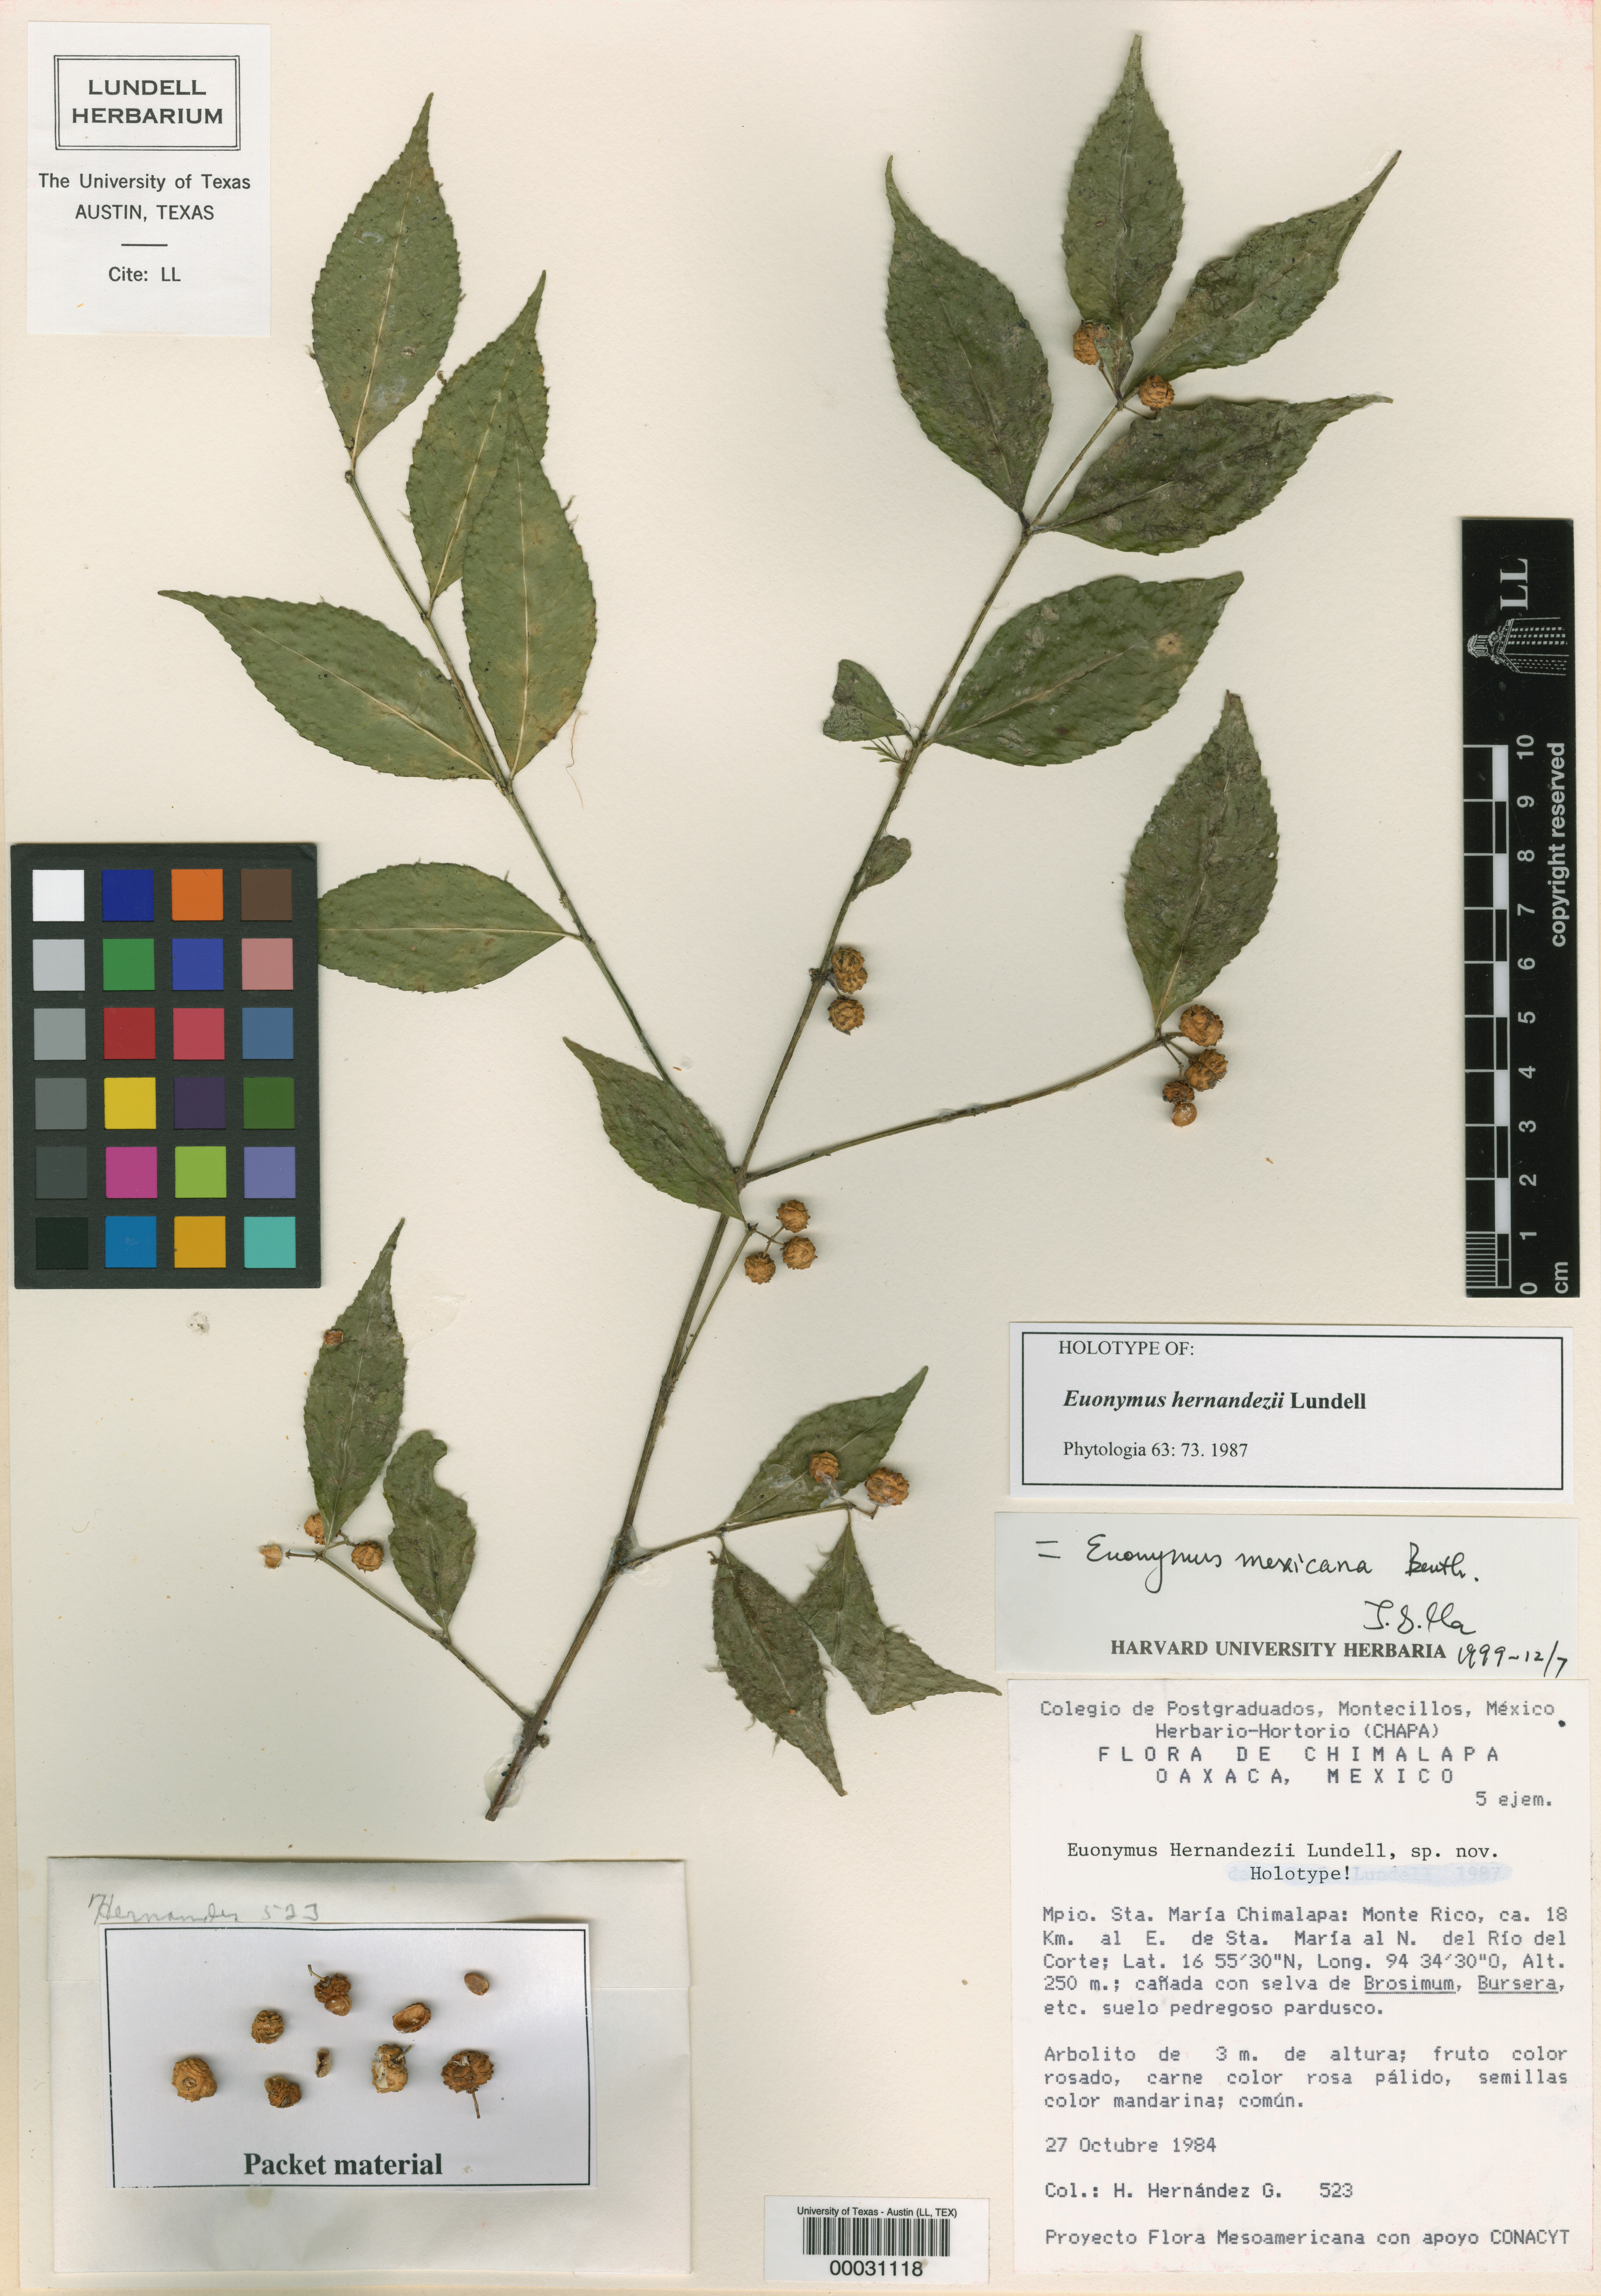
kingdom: Plantae
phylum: Tracheophyta
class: Magnoliopsida
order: Celastrales
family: Celastraceae
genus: Euonymus
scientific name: Euonymus mexicanus
